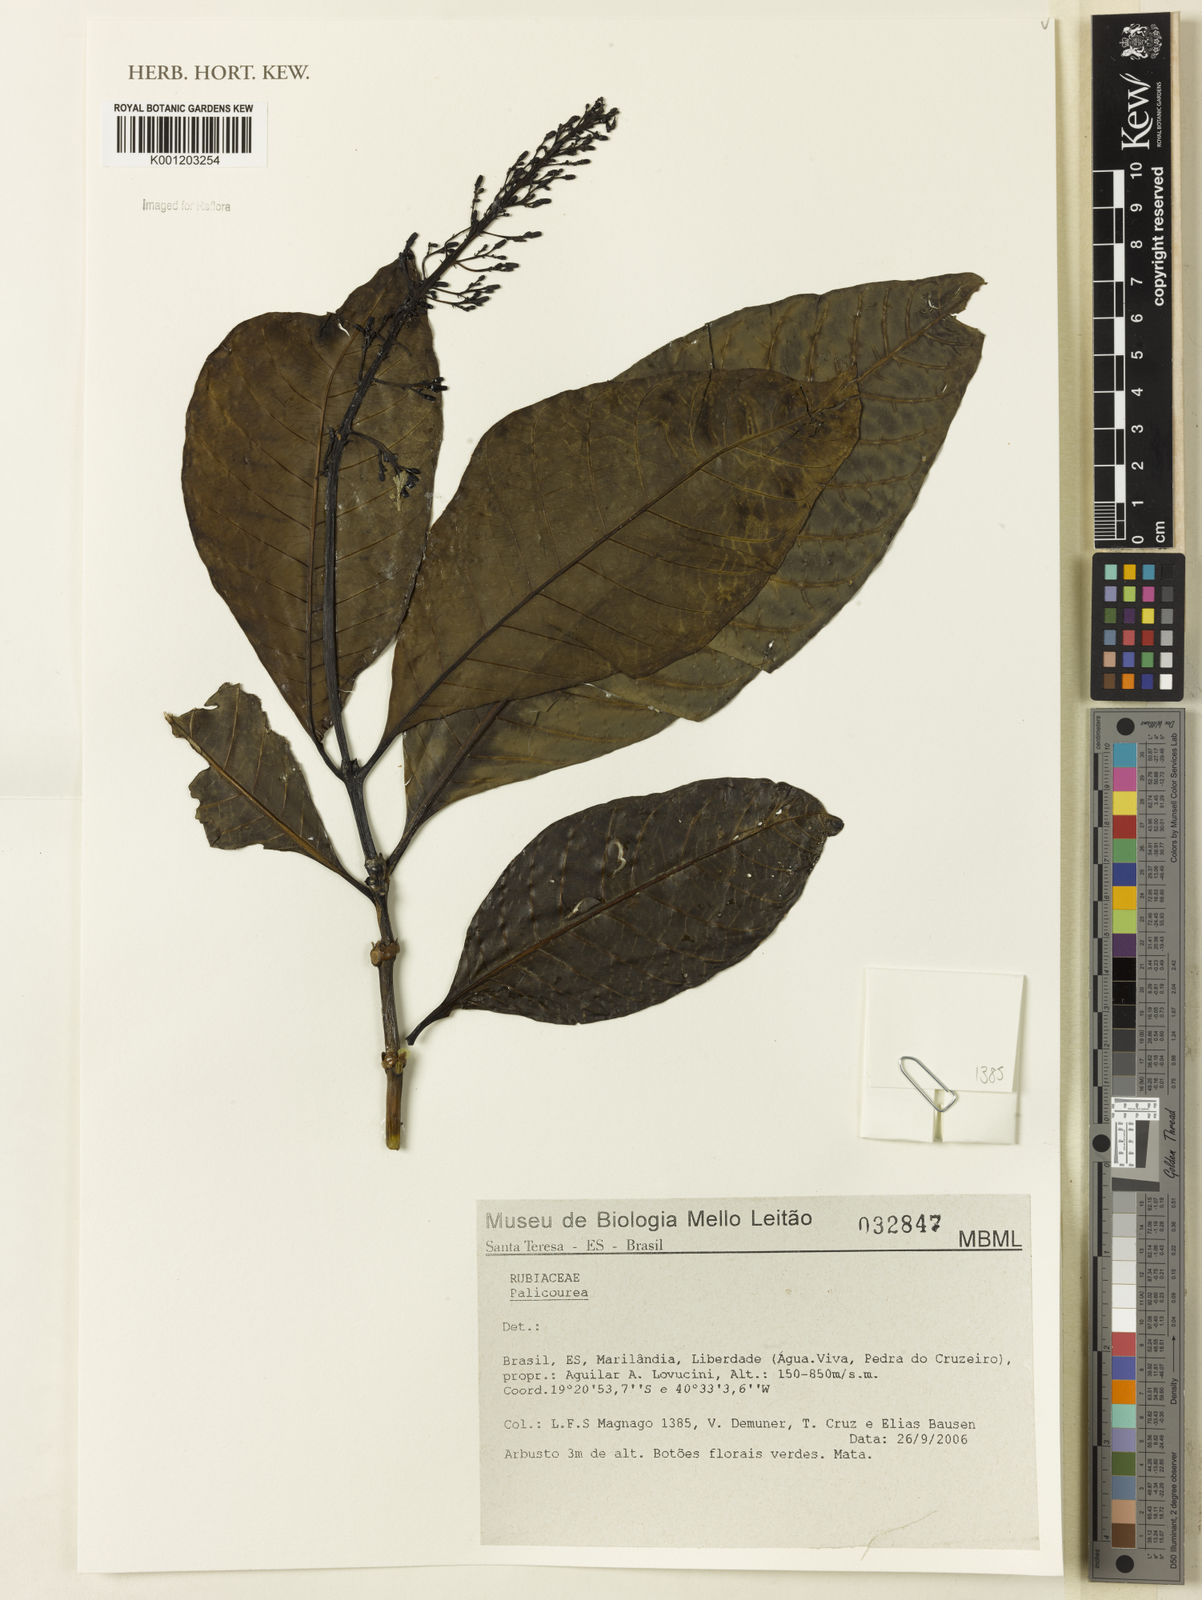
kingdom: Plantae
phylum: Tracheophyta
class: Magnoliopsida
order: Gentianales
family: Rubiaceae
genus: Palicourea
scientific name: Palicourea
